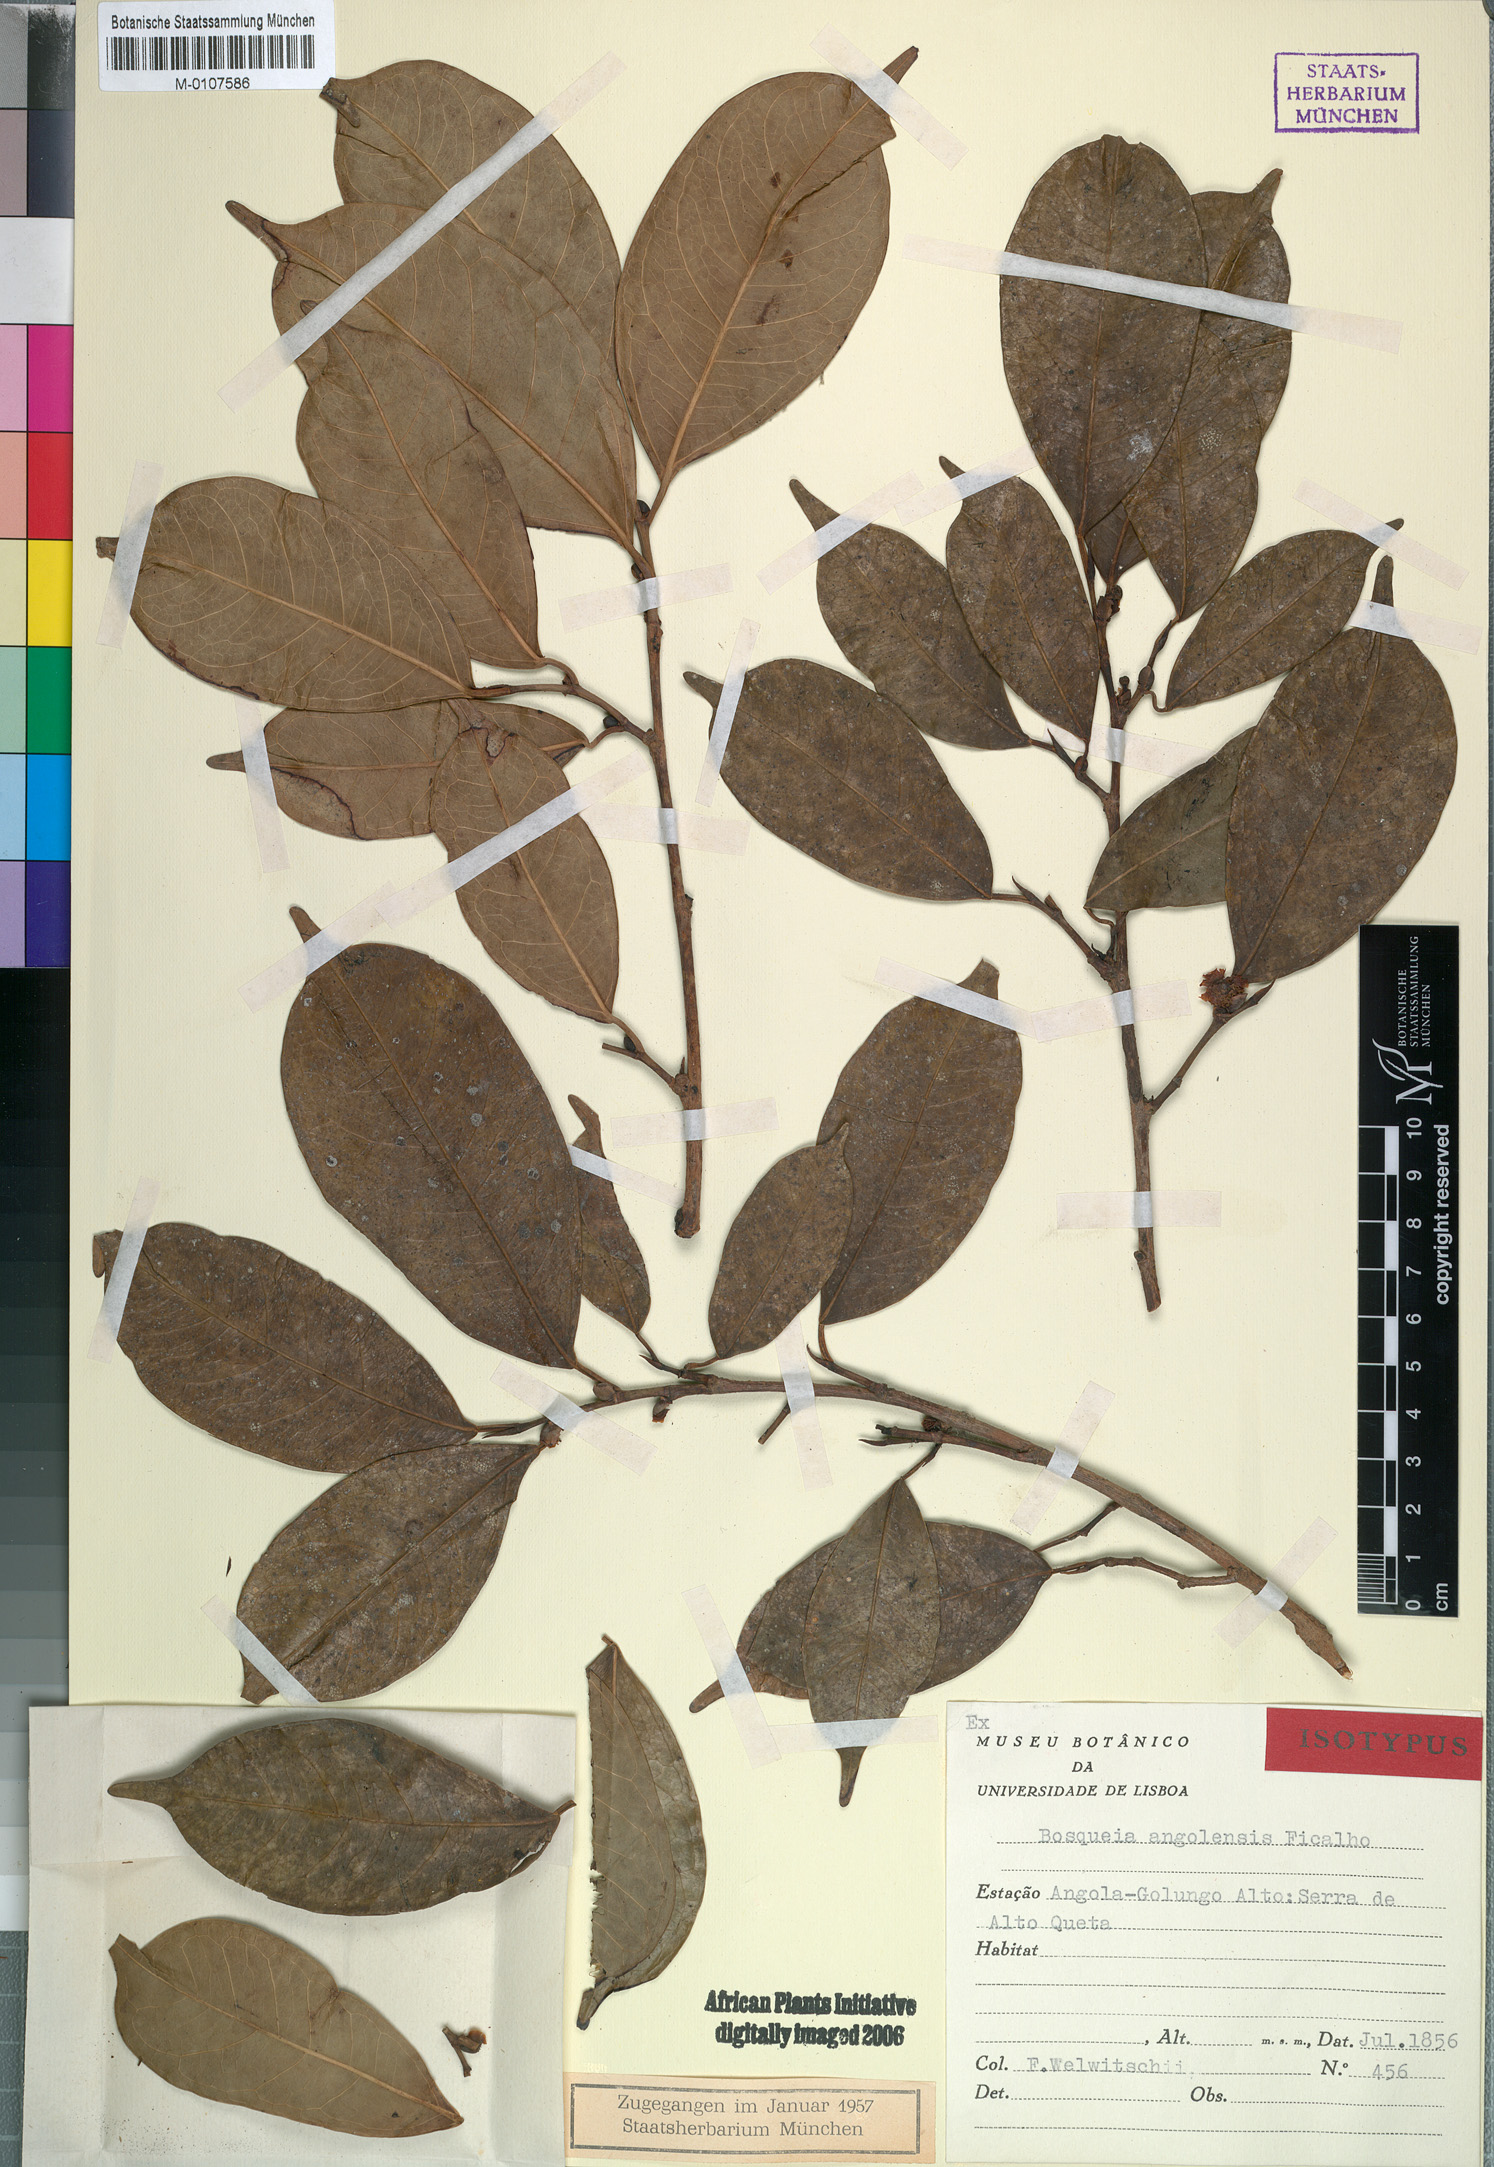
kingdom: Plantae
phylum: Tracheophyta
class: Magnoliopsida
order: Rosales
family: Moraceae
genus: Trilepisium
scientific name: Trilepisium madagascariense
